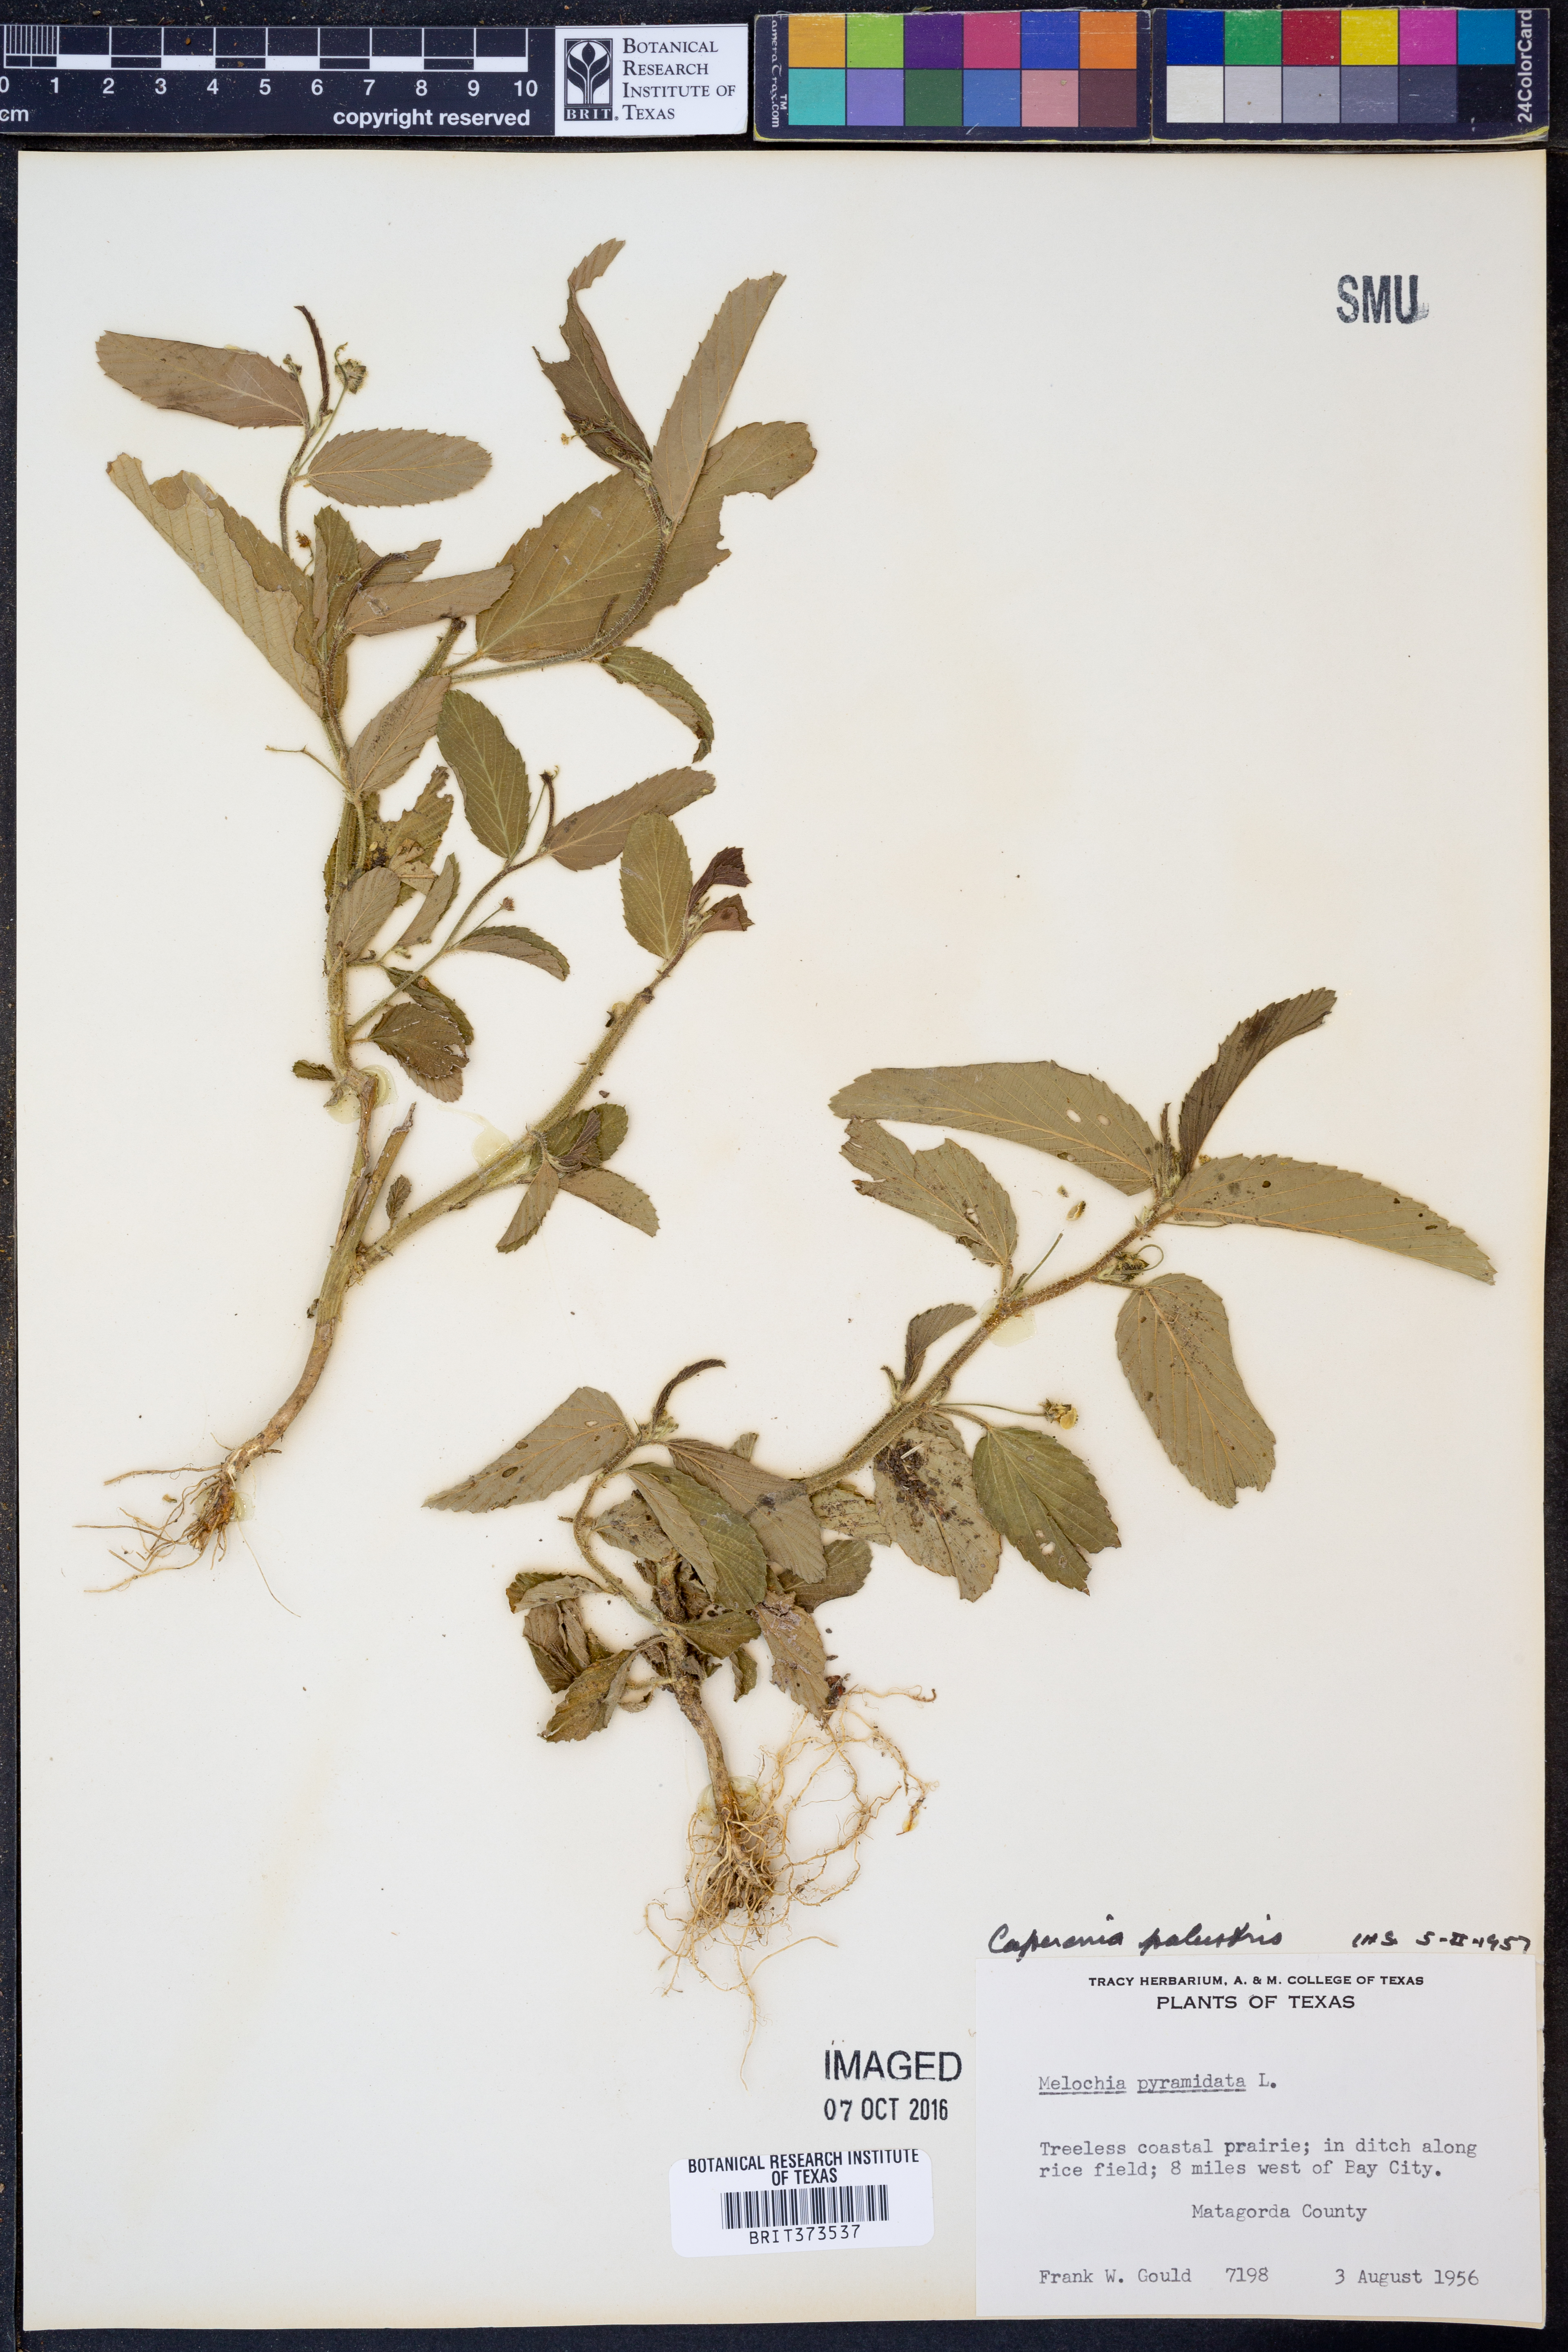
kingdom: Plantae
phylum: Tracheophyta
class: Magnoliopsida
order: Malpighiales
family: Euphorbiaceae
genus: Caperonia
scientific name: Caperonia palustris
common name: Sacatrapo
